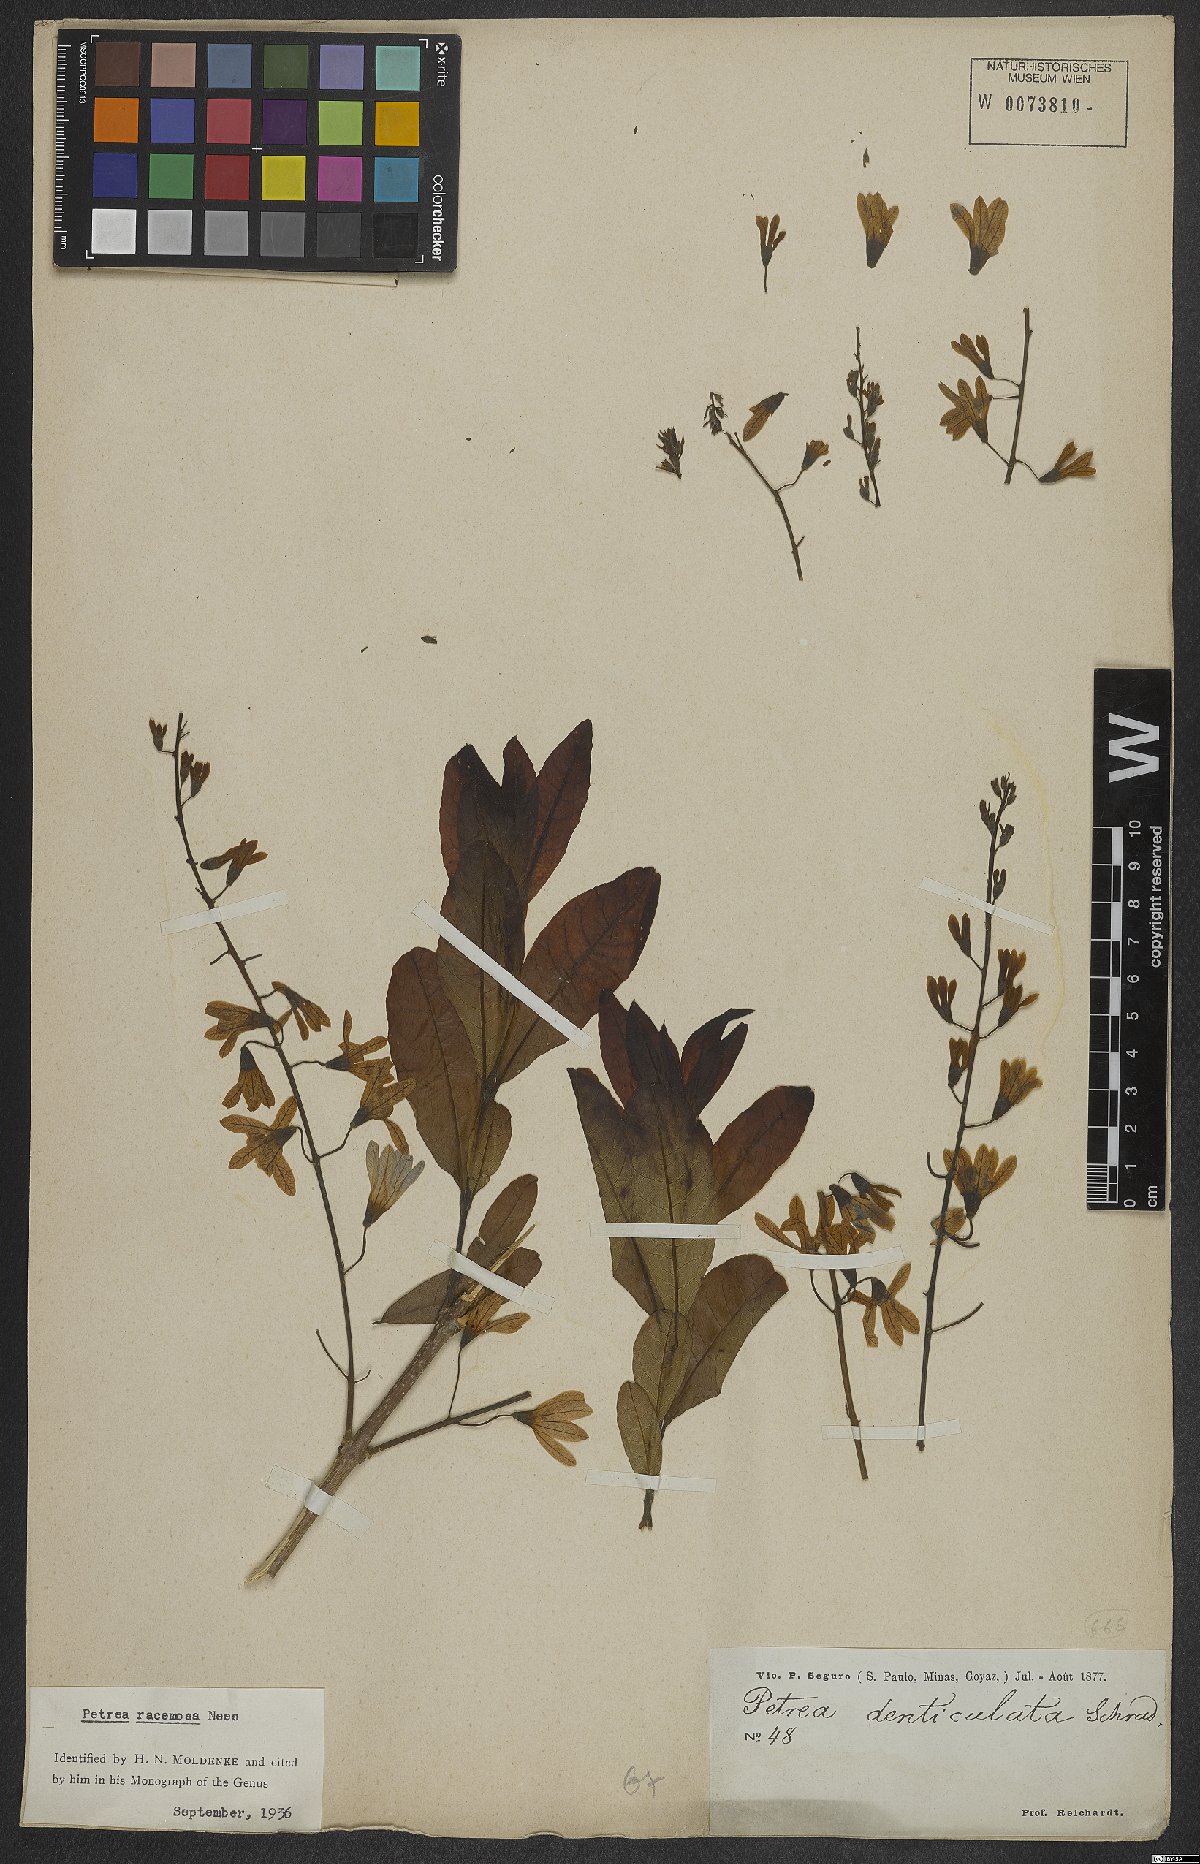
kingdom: Plantae
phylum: Tracheophyta
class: Magnoliopsida
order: Lamiales
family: Verbenaceae
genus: Petrea
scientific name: Petrea volubilis
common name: Queen's-wreath
